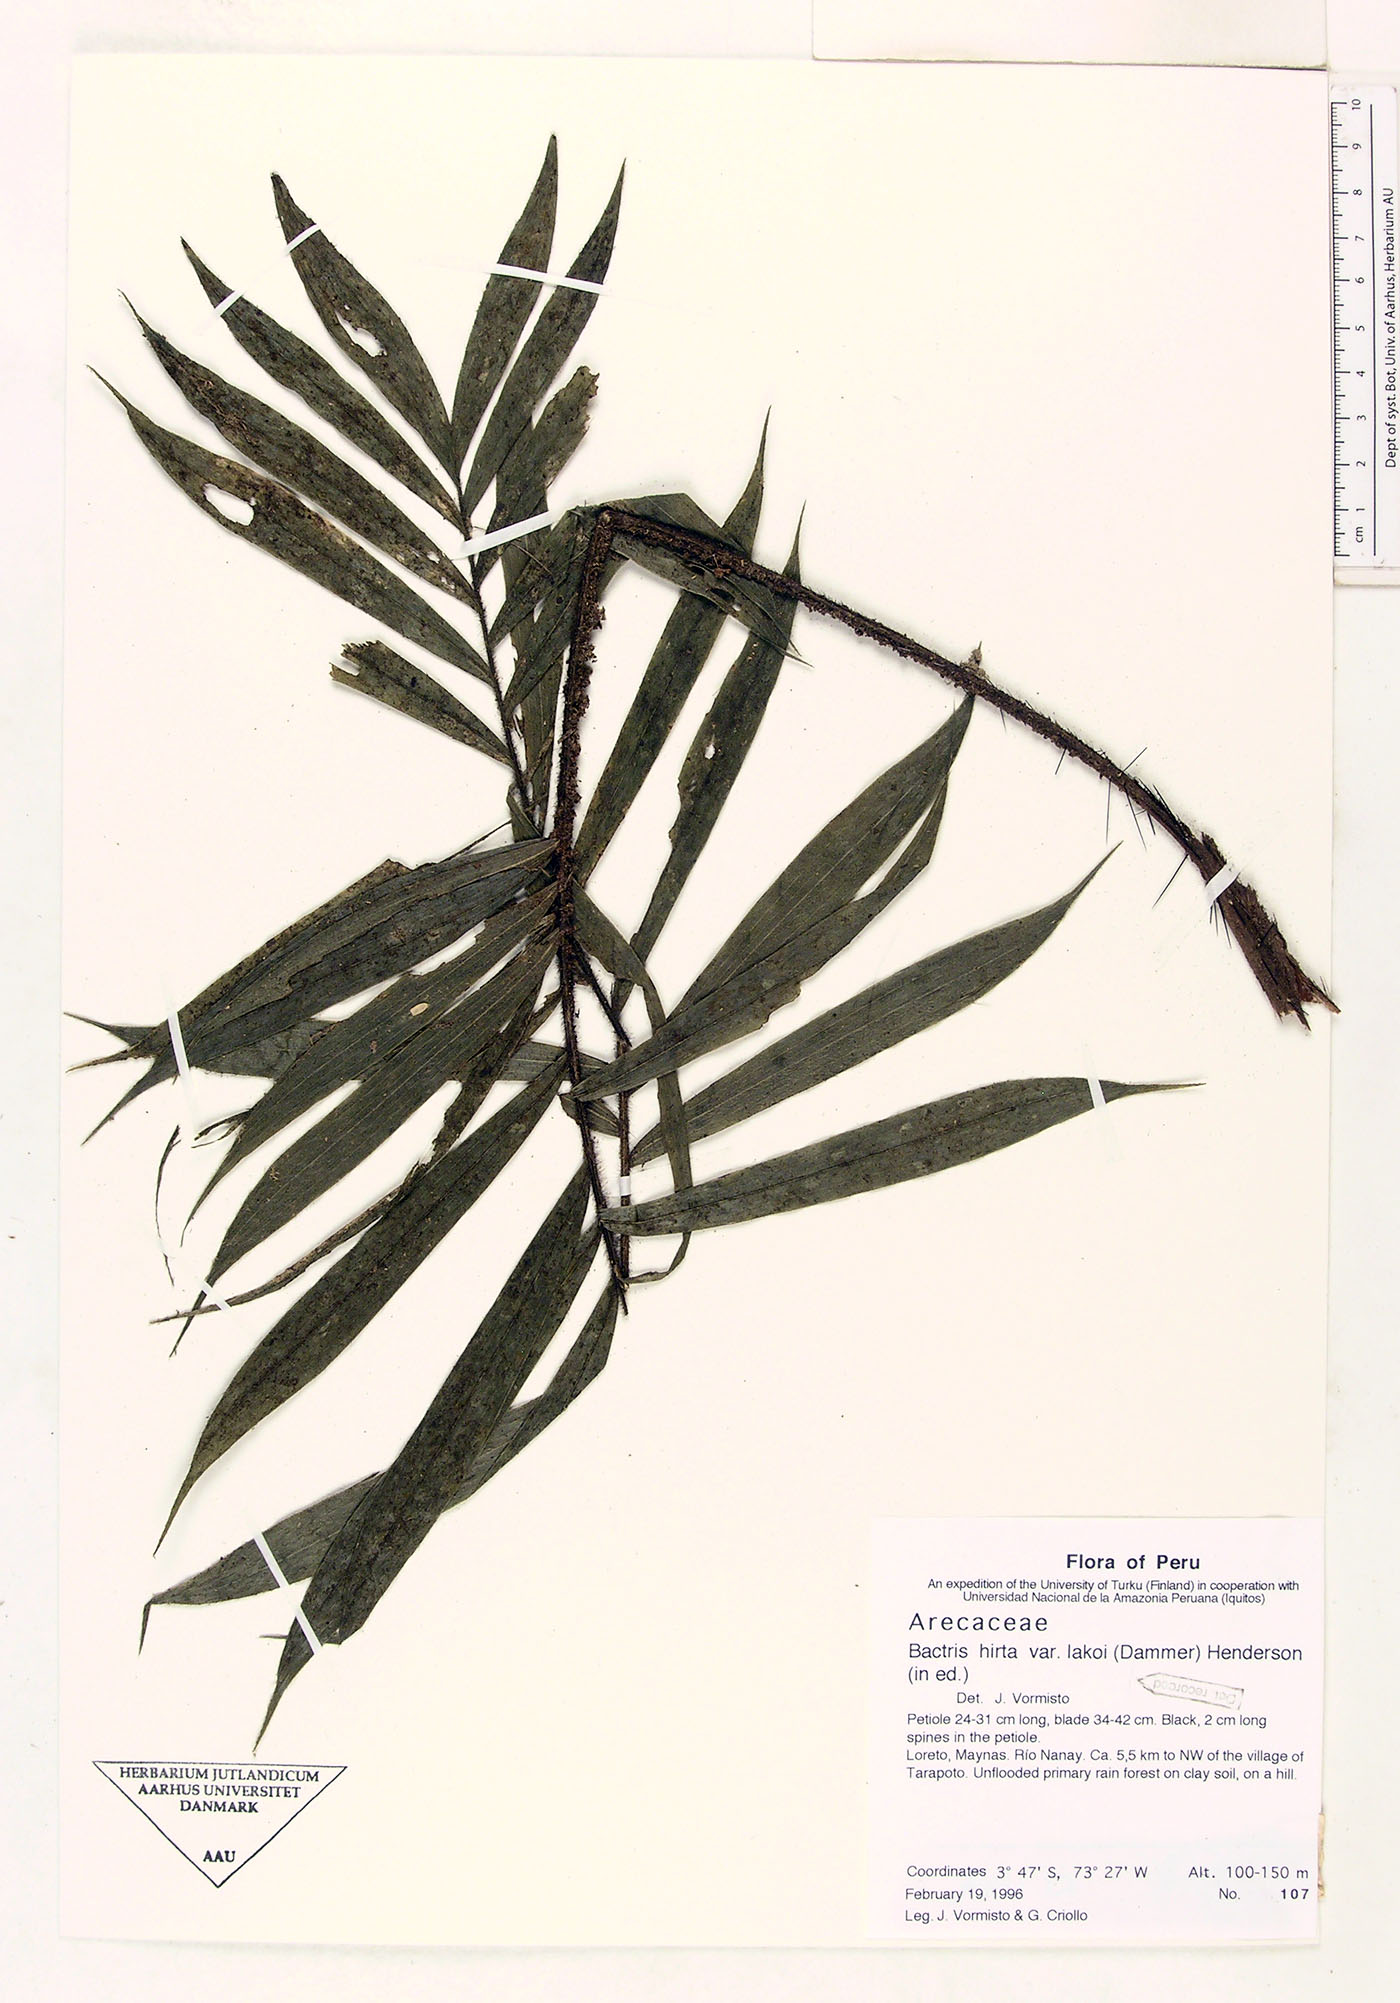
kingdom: Plantae
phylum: Tracheophyta
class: Liliopsida
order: Arecales
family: Arecaceae
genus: Bactris
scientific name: Bactris hirta
